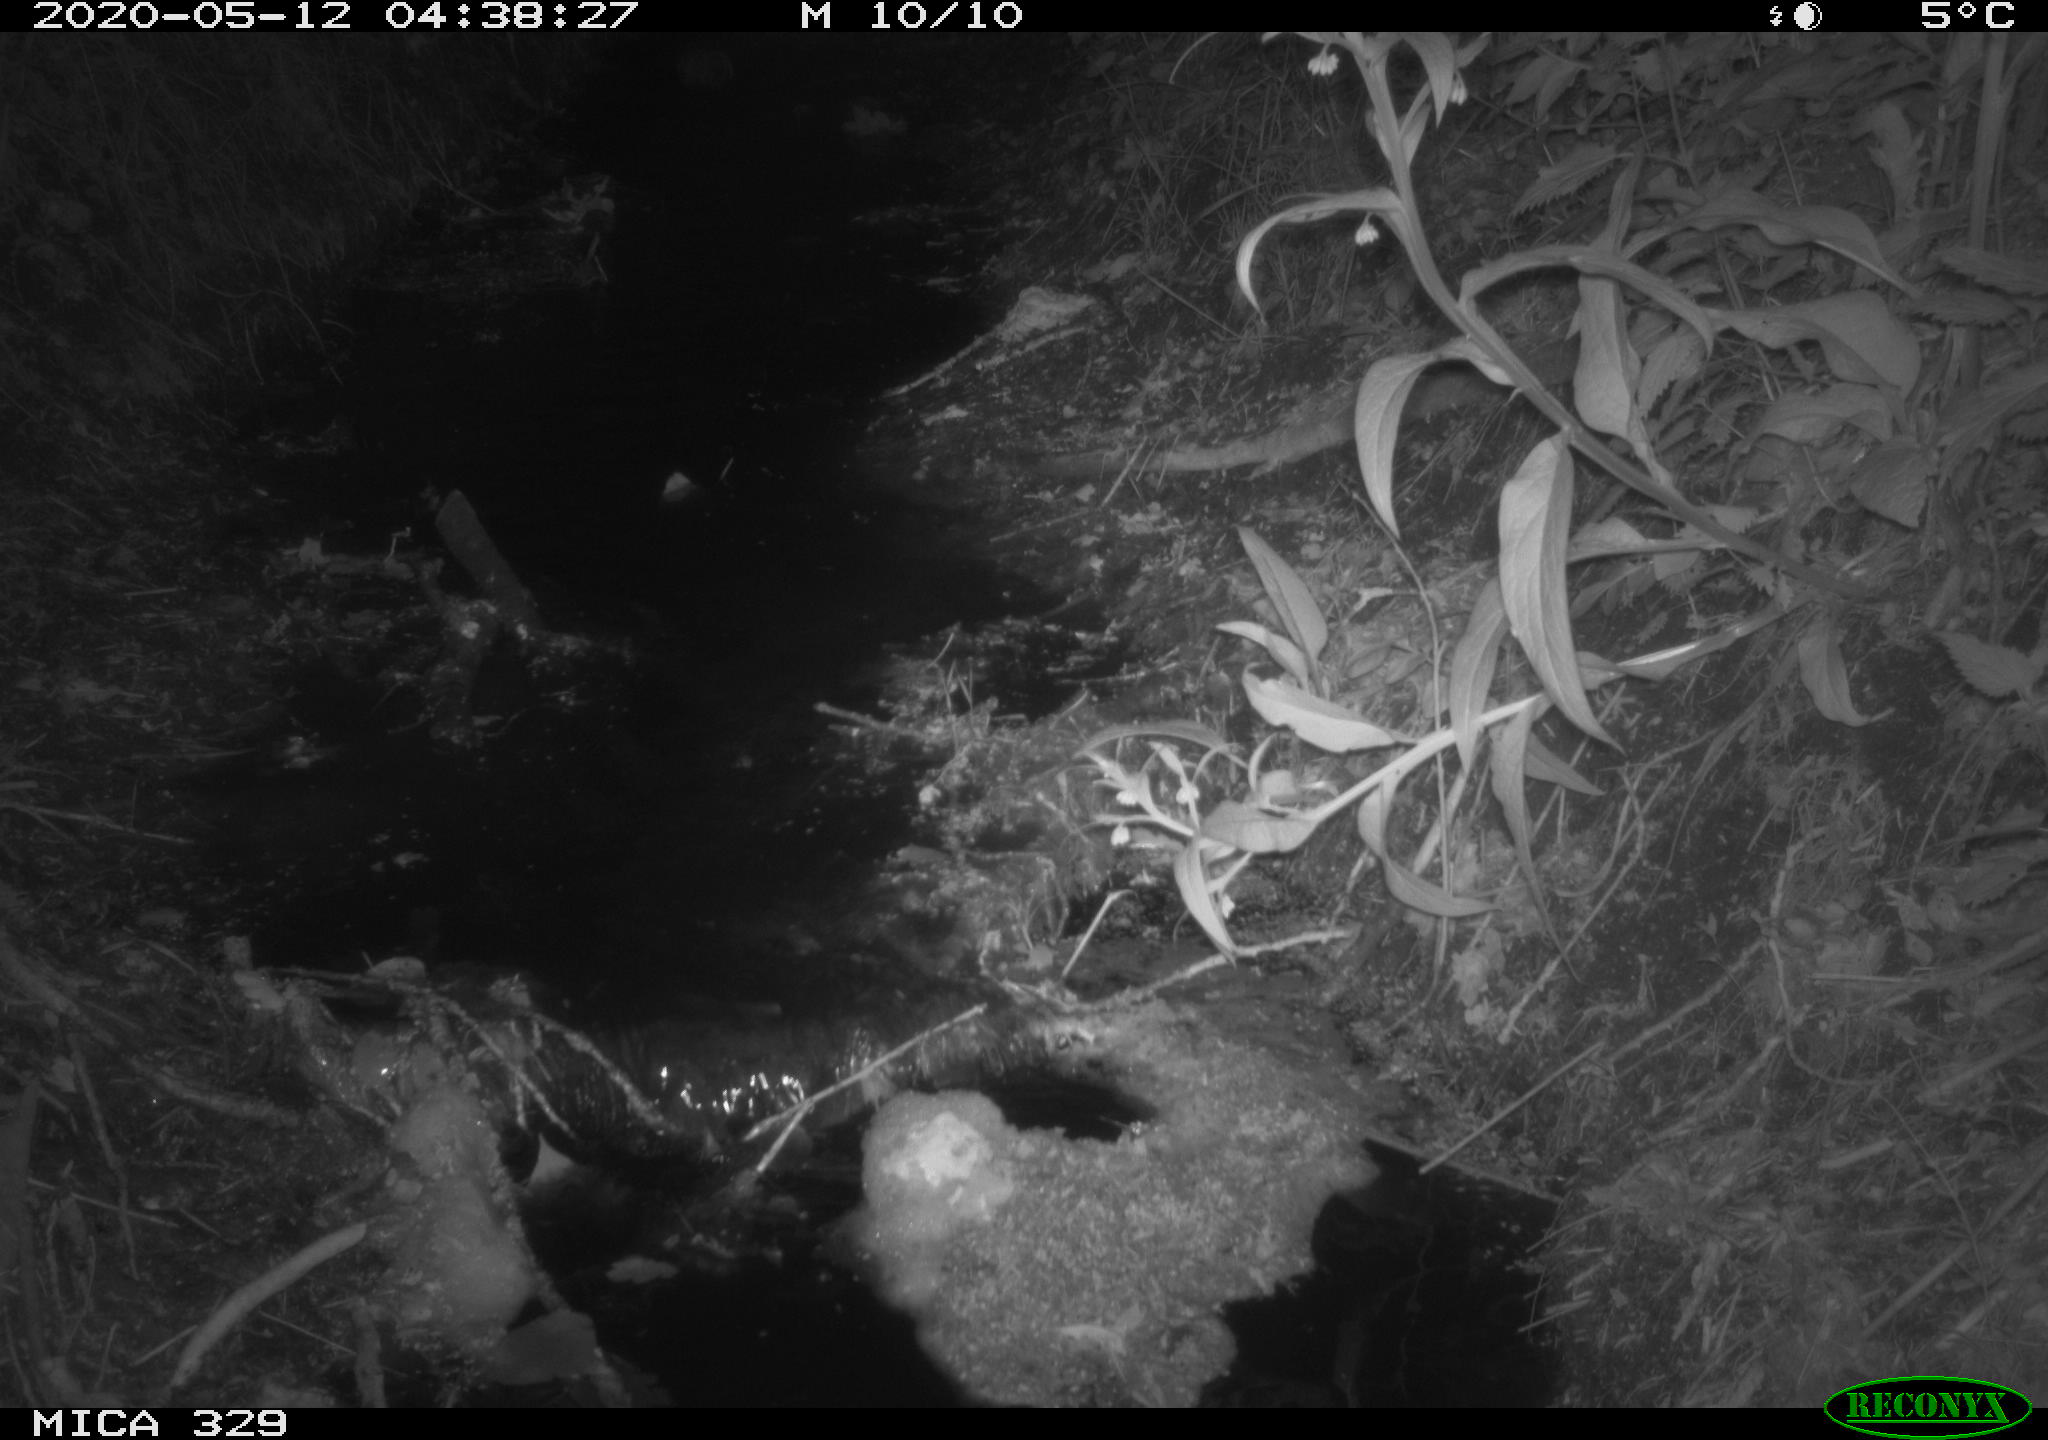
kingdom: Animalia
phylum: Chordata
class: Mammalia
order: Rodentia
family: Cricetidae
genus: Ondatra
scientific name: Ondatra zibethicus
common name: Muskrat
